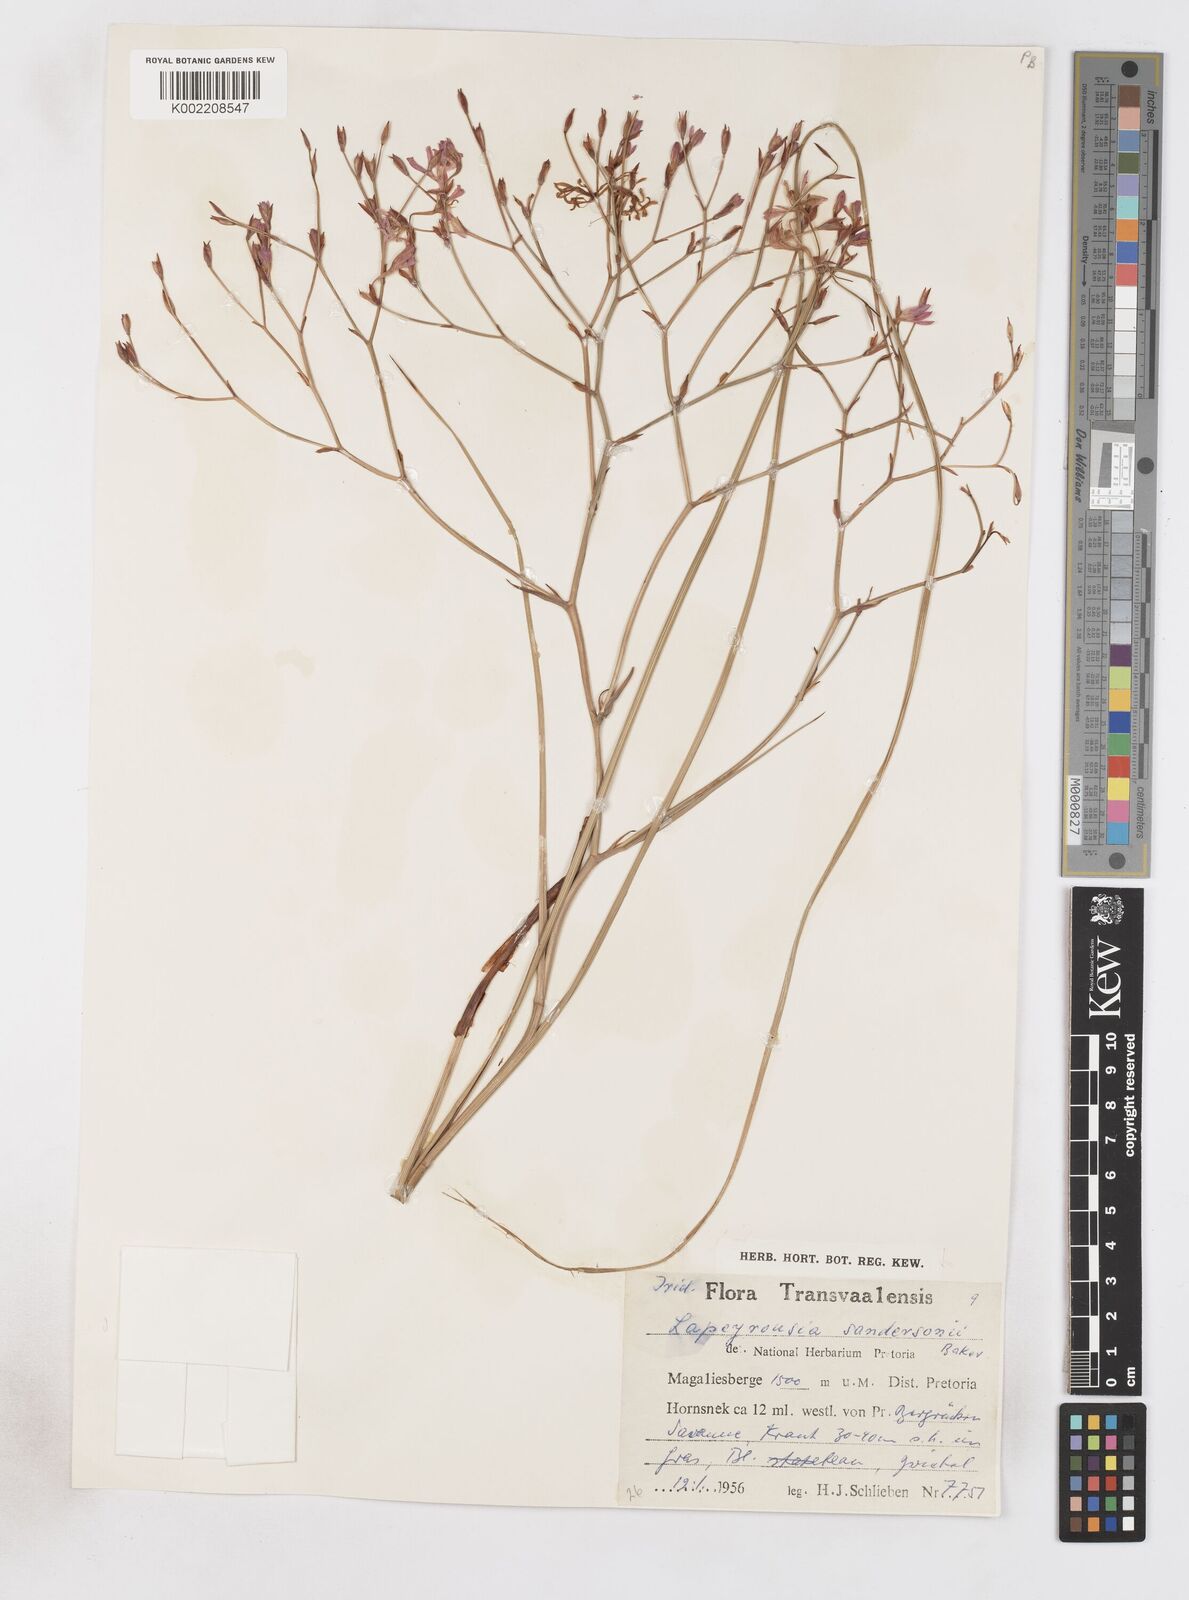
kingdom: Plantae
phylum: Tracheophyta
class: Liliopsida
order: Asparagales
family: Iridaceae
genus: Afrosolen
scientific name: Afrosolen sandersonii
